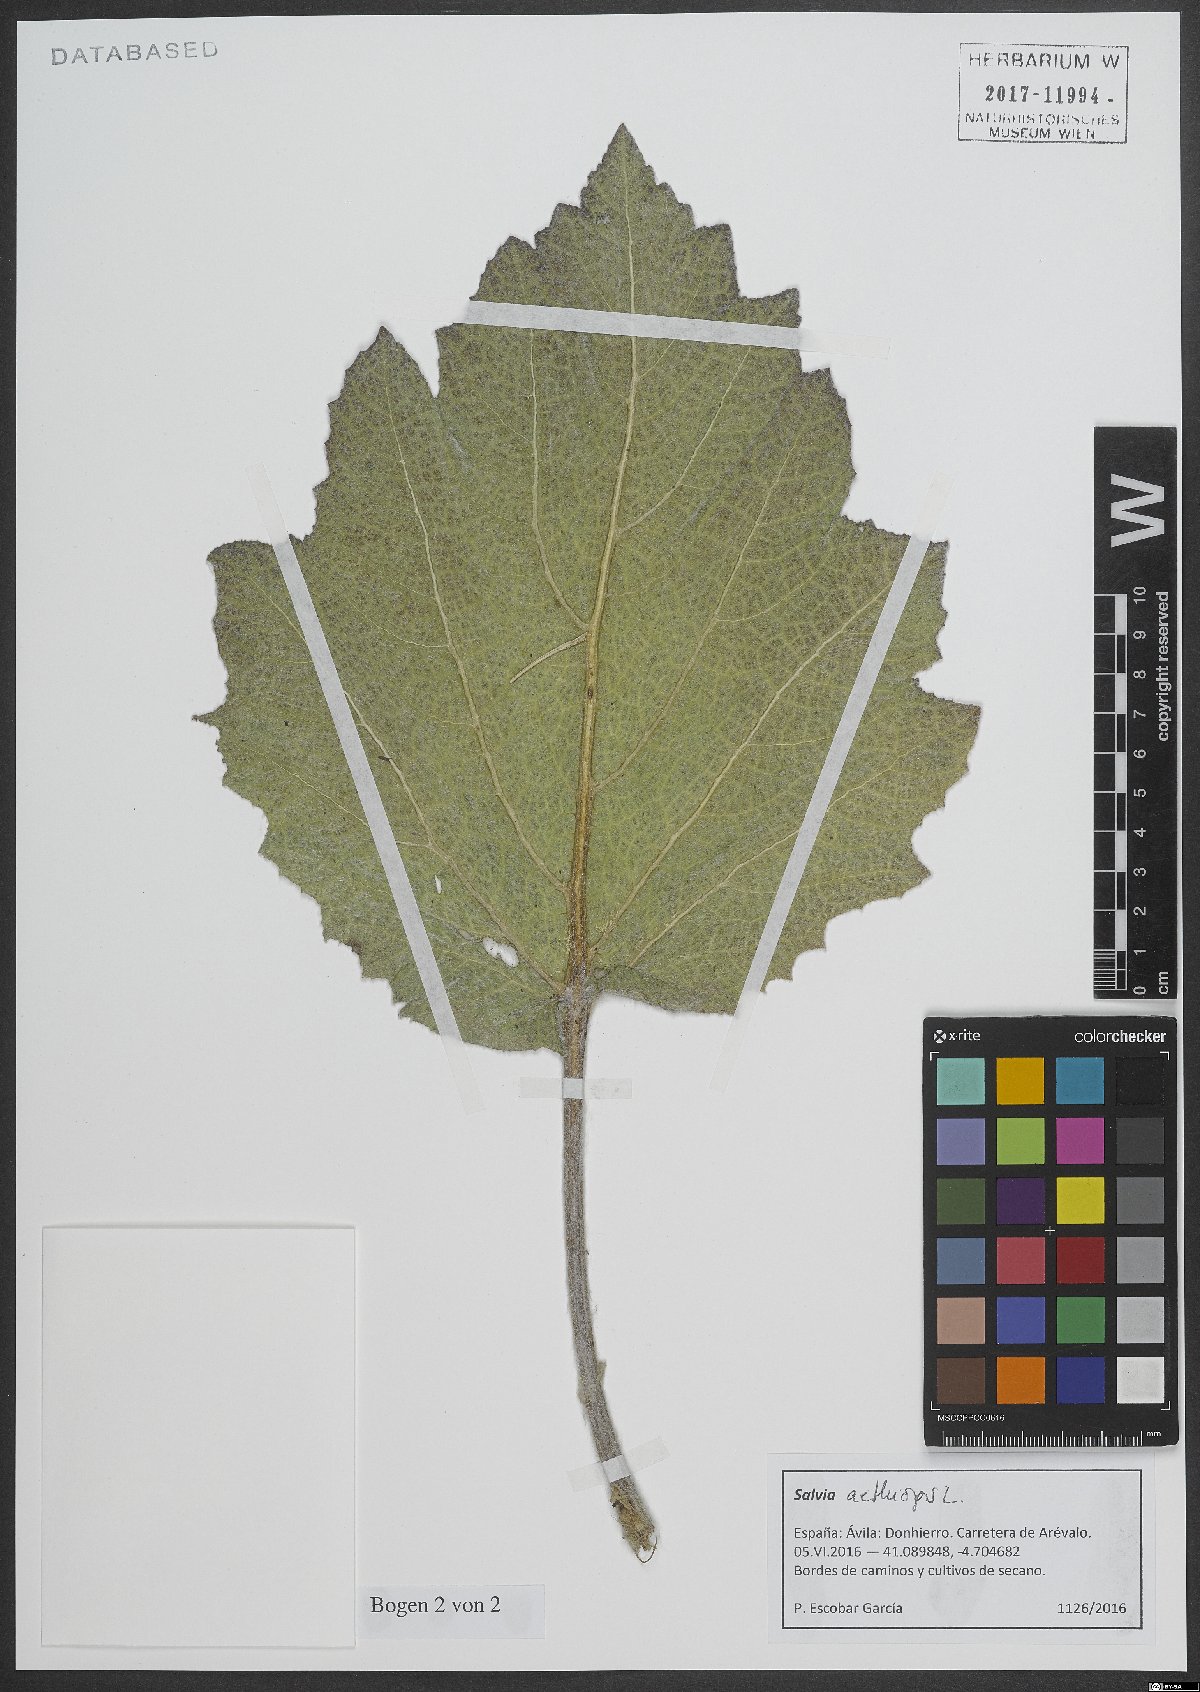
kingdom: Plantae
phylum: Tracheophyta
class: Magnoliopsida
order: Lamiales
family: Lamiaceae
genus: Salvia
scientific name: Salvia aethiopis
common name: Mediterranean sage
